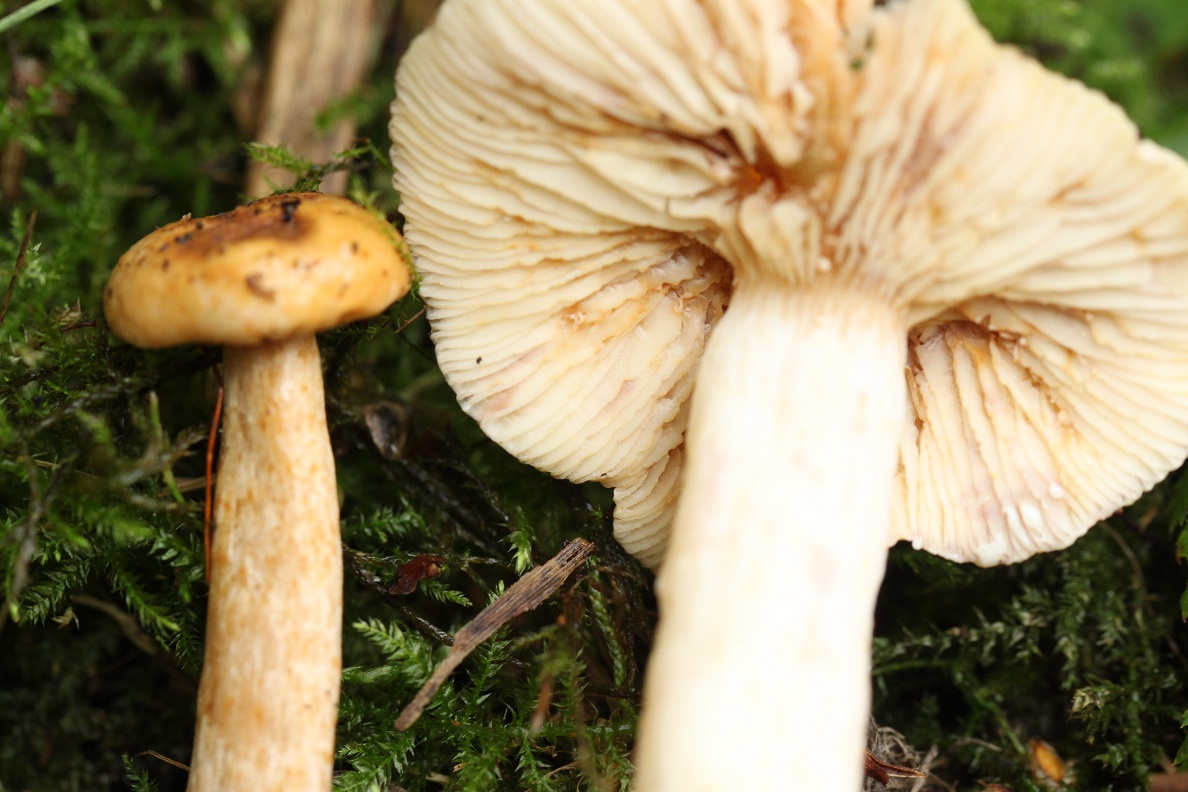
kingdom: Fungi
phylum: Basidiomycota
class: Agaricomycetes
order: Russulales
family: Russulaceae
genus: Lactarius
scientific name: Lactarius aspideus
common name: pile-mælkehat
